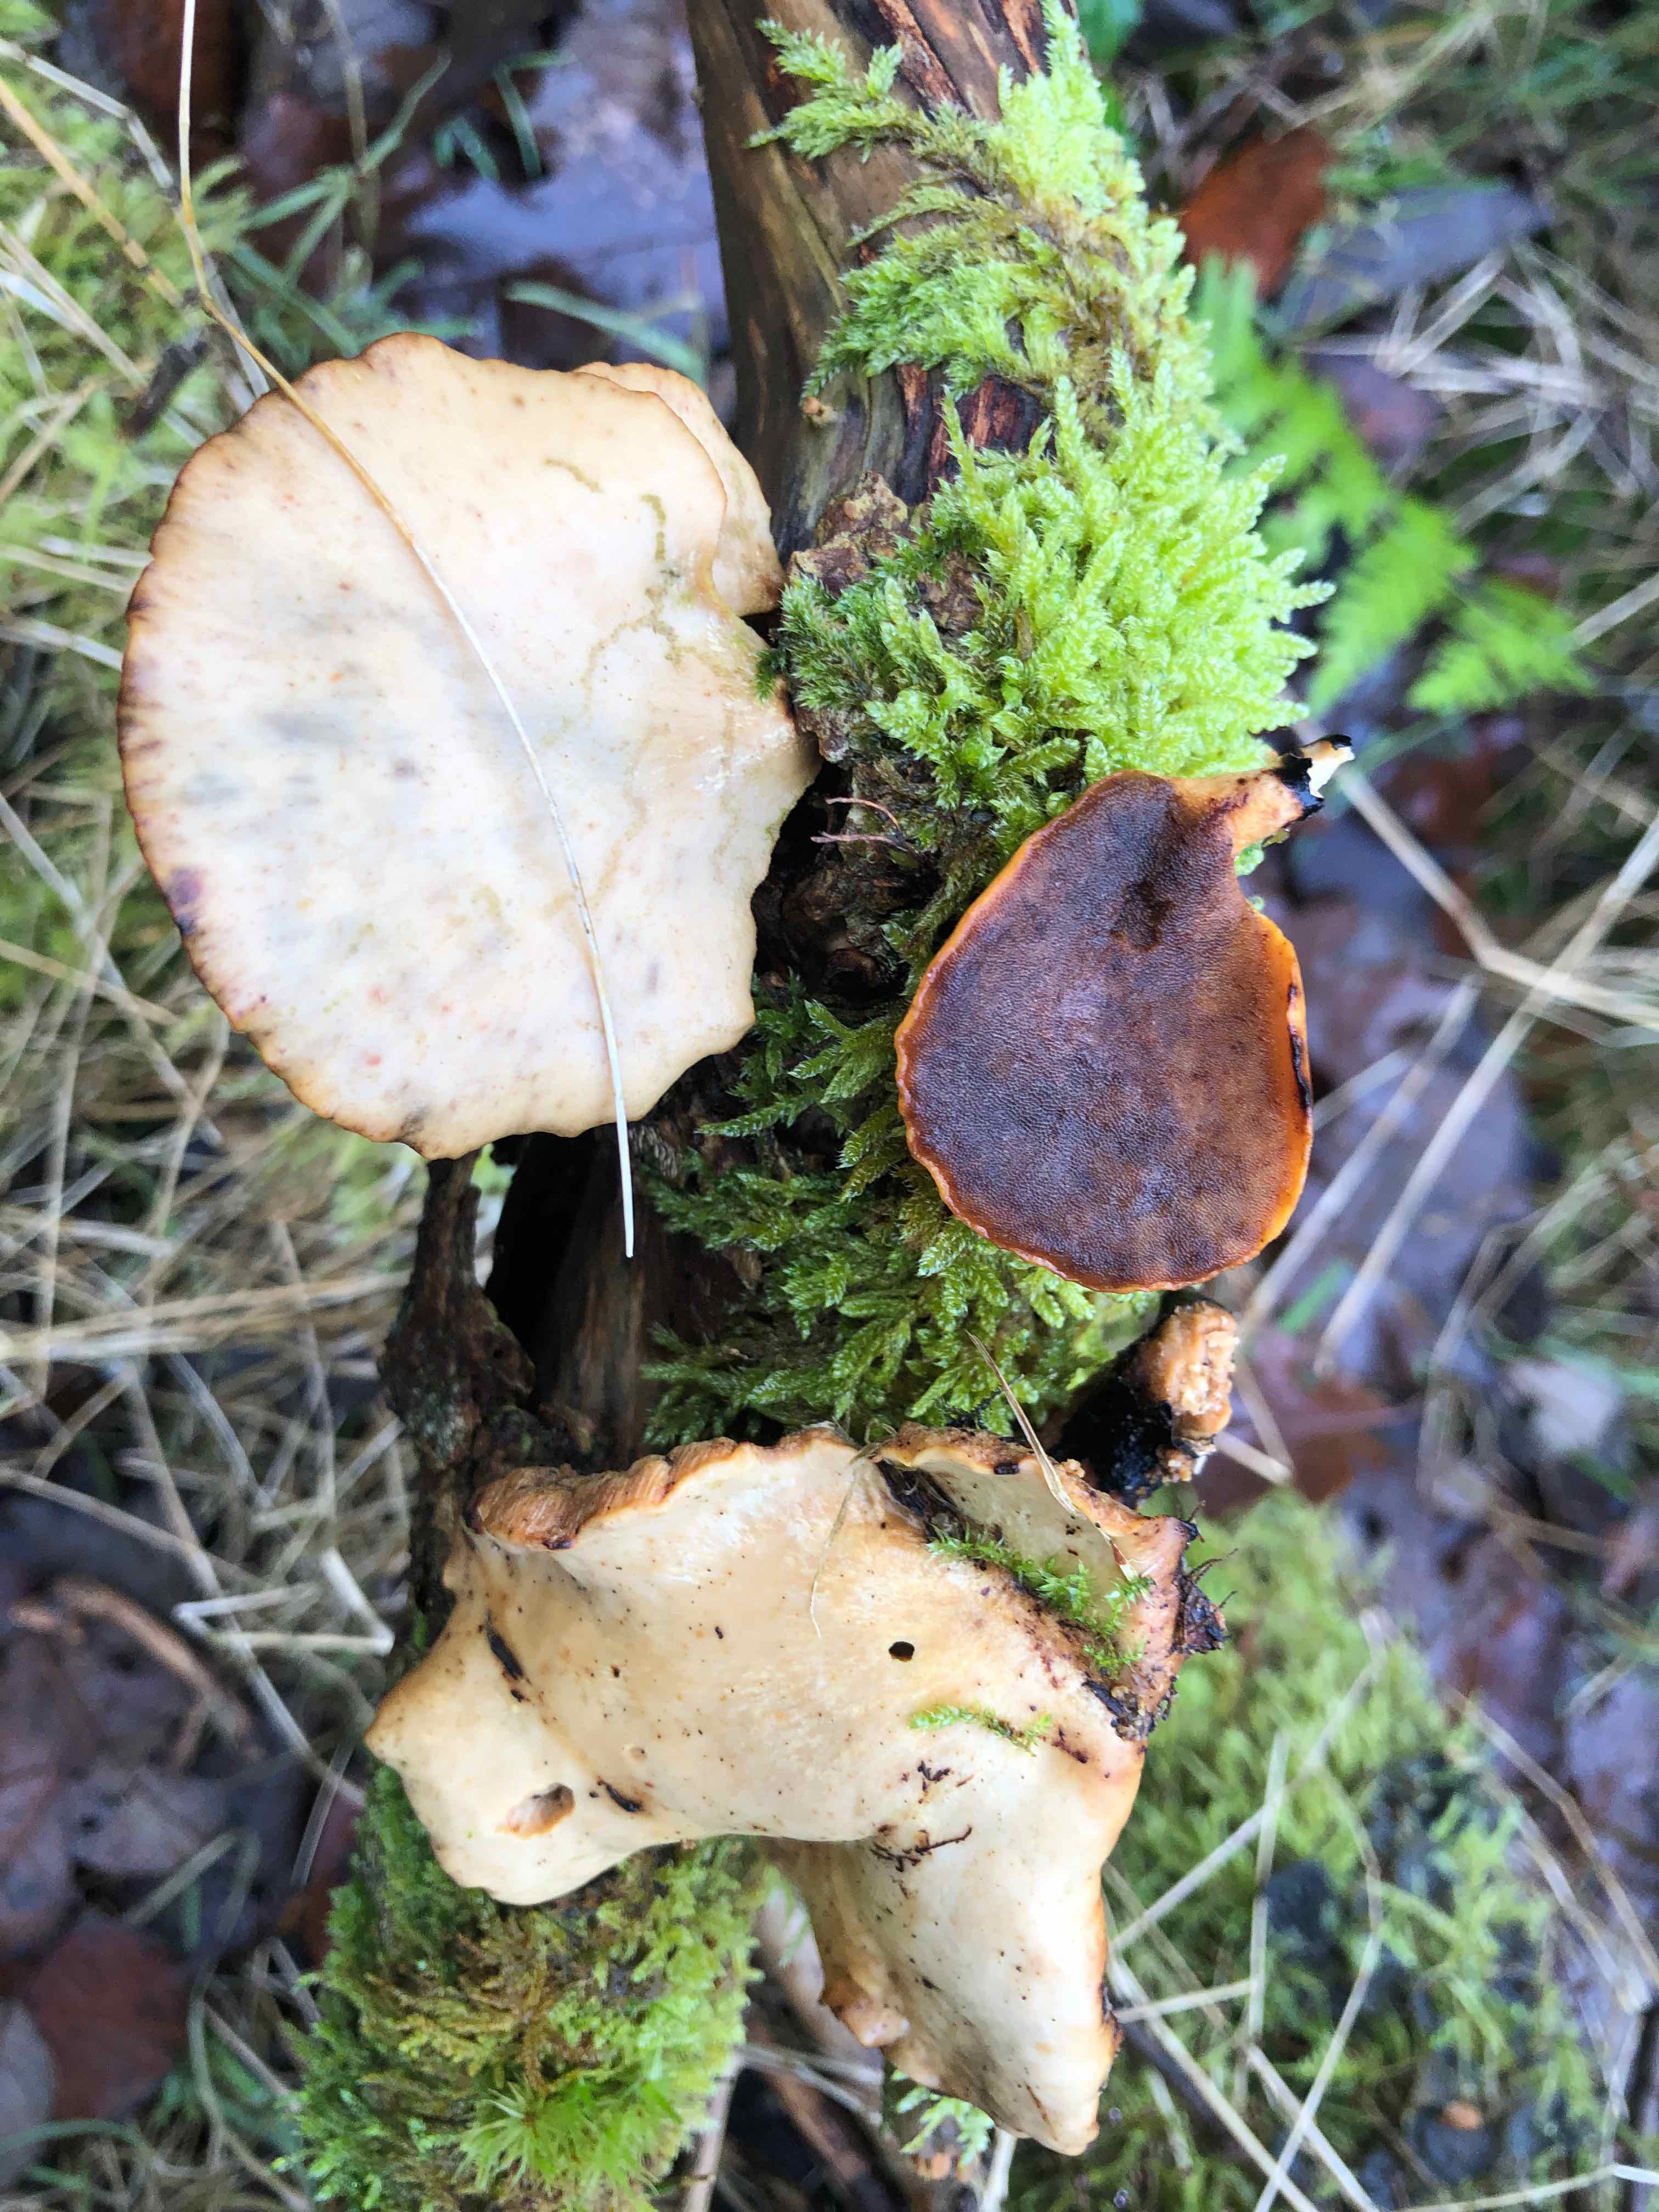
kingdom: Fungi
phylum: Basidiomycota
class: Agaricomycetes
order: Polyporales
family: Polyporaceae
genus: Cerioporus
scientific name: Cerioporus varius
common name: foranderlig stilkporesvamp
